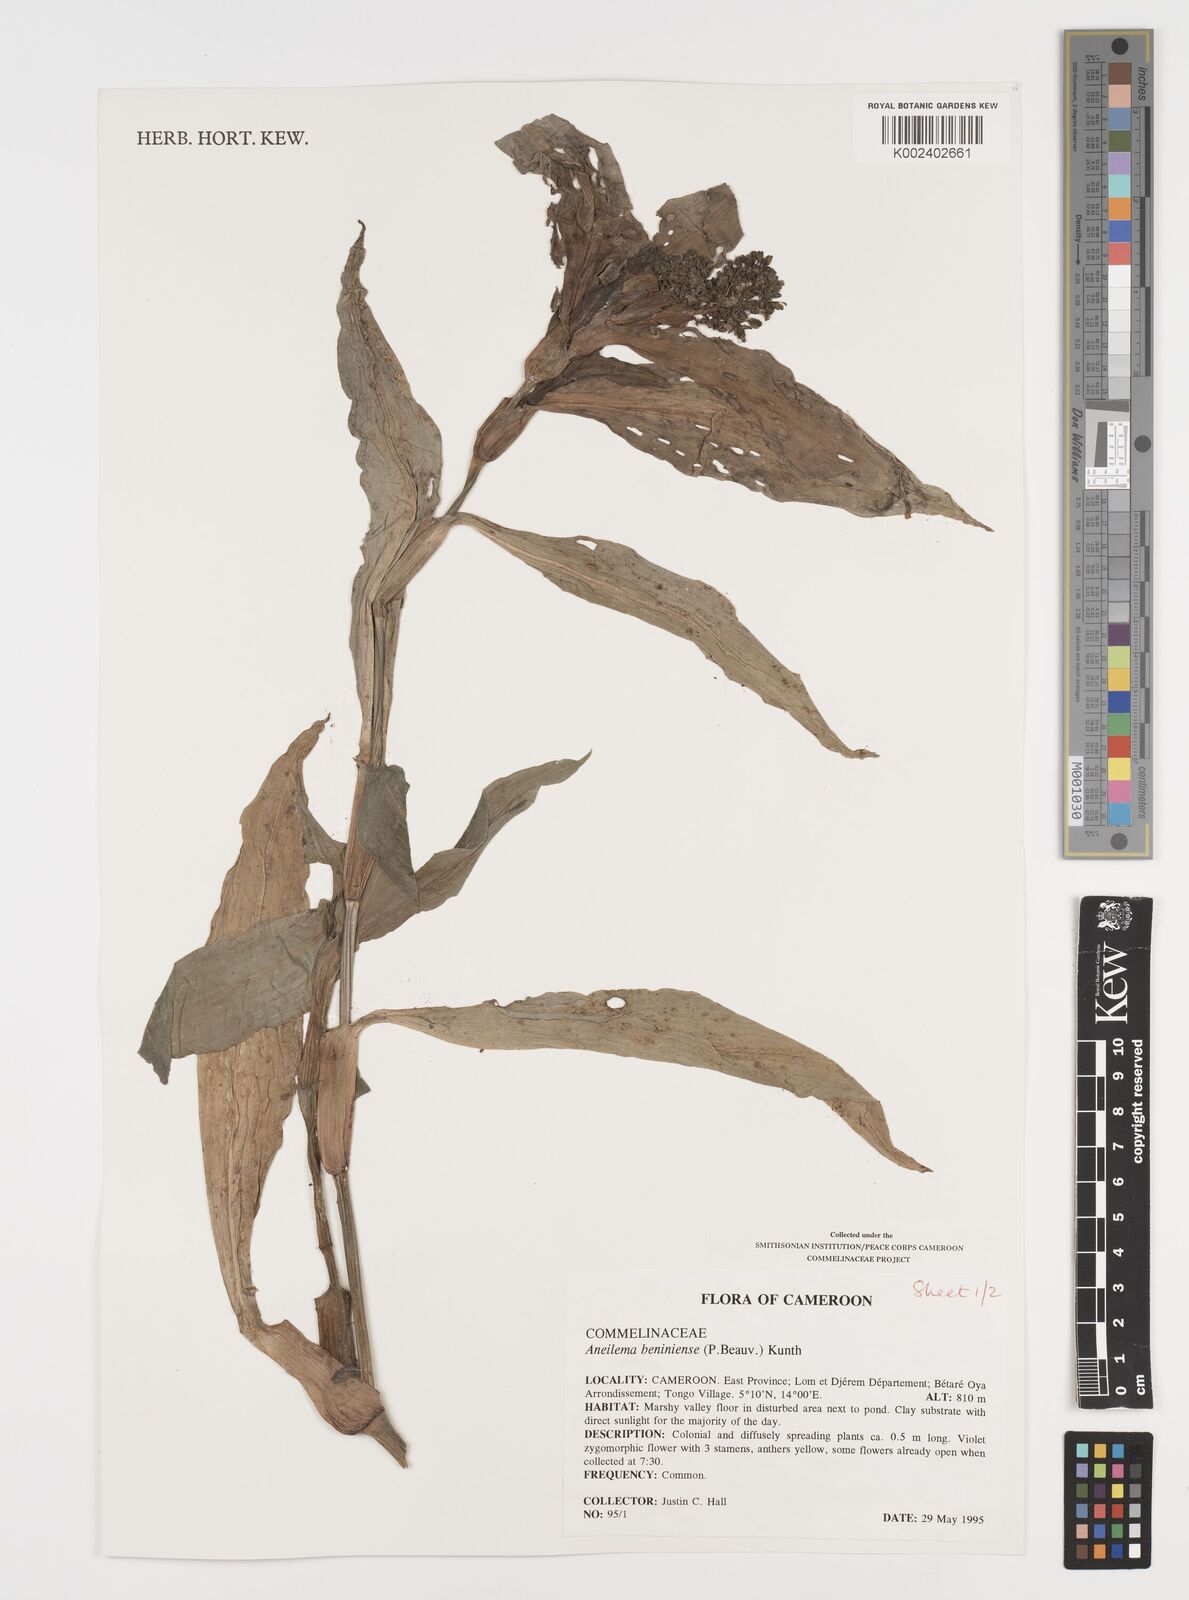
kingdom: Plantae
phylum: Tracheophyta
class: Liliopsida
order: Commelinales
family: Commelinaceae
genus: Aneilema
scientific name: Aneilema beniniense
